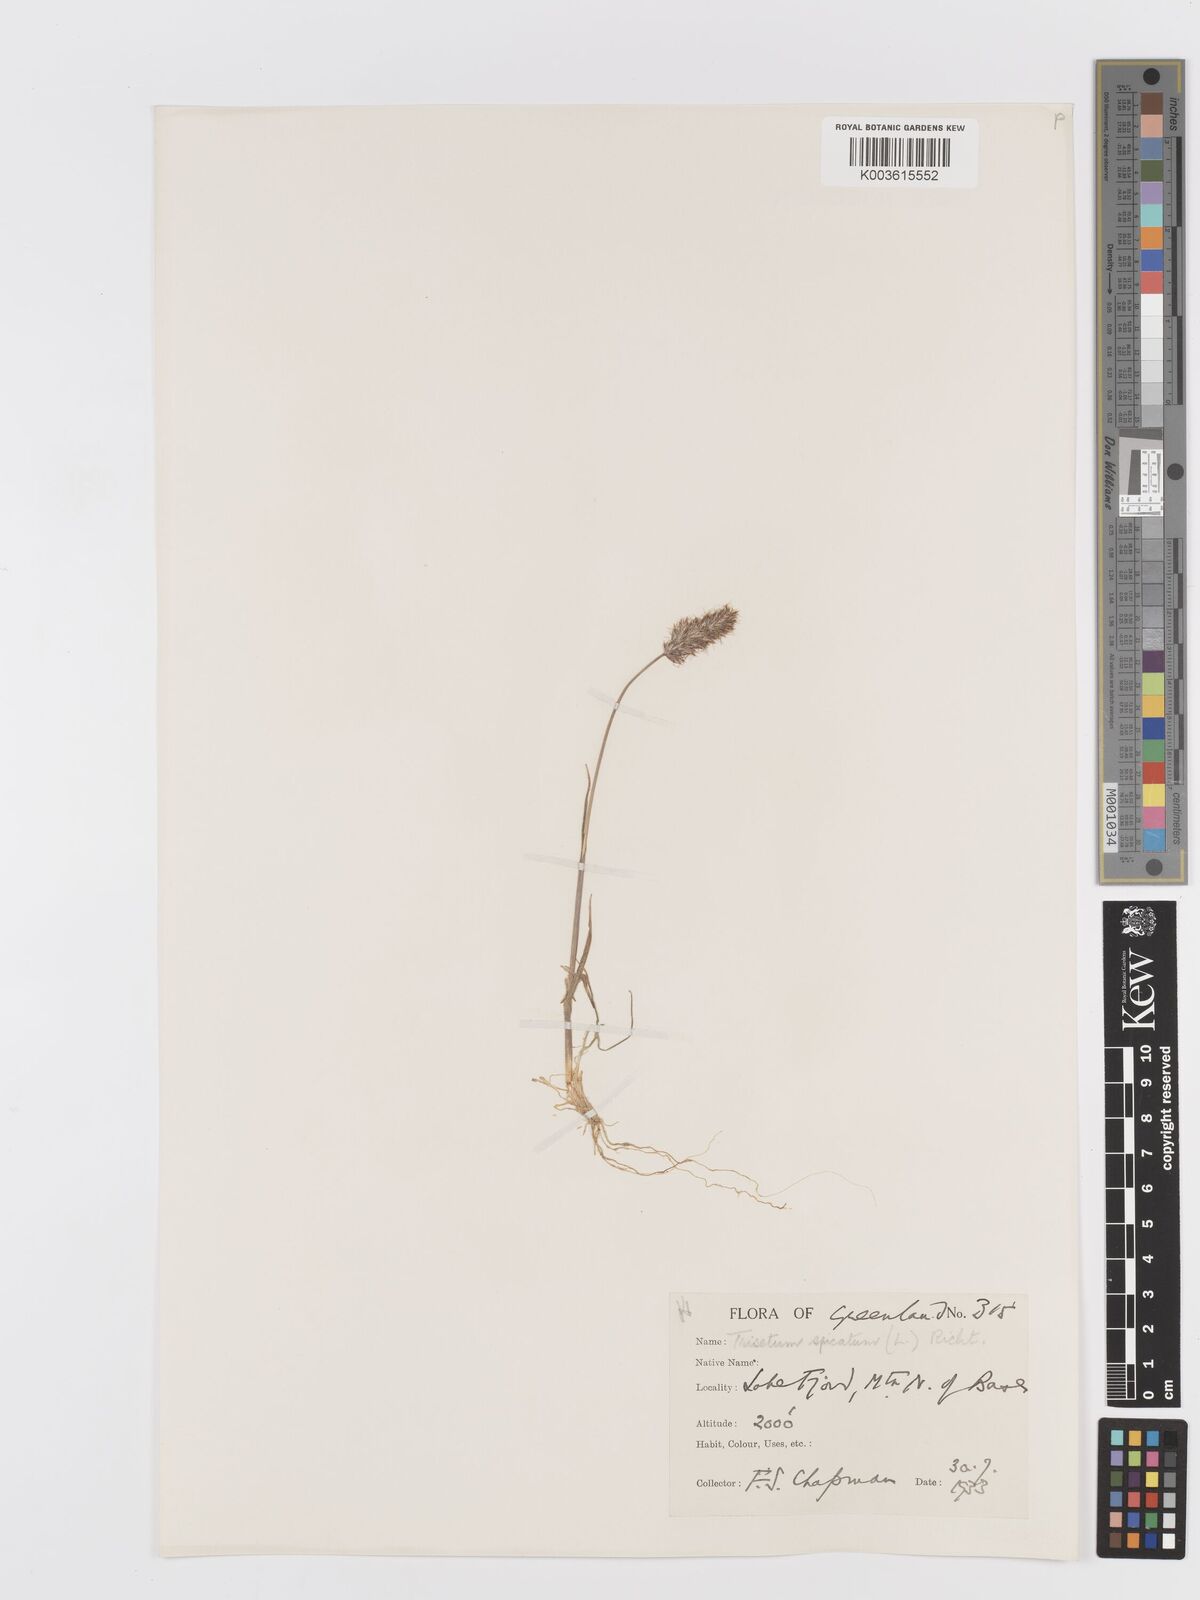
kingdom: Plantae
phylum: Tracheophyta
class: Liliopsida
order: Poales
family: Poaceae
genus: Koeleria
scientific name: Koeleria spicata
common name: Mountain trisetum
